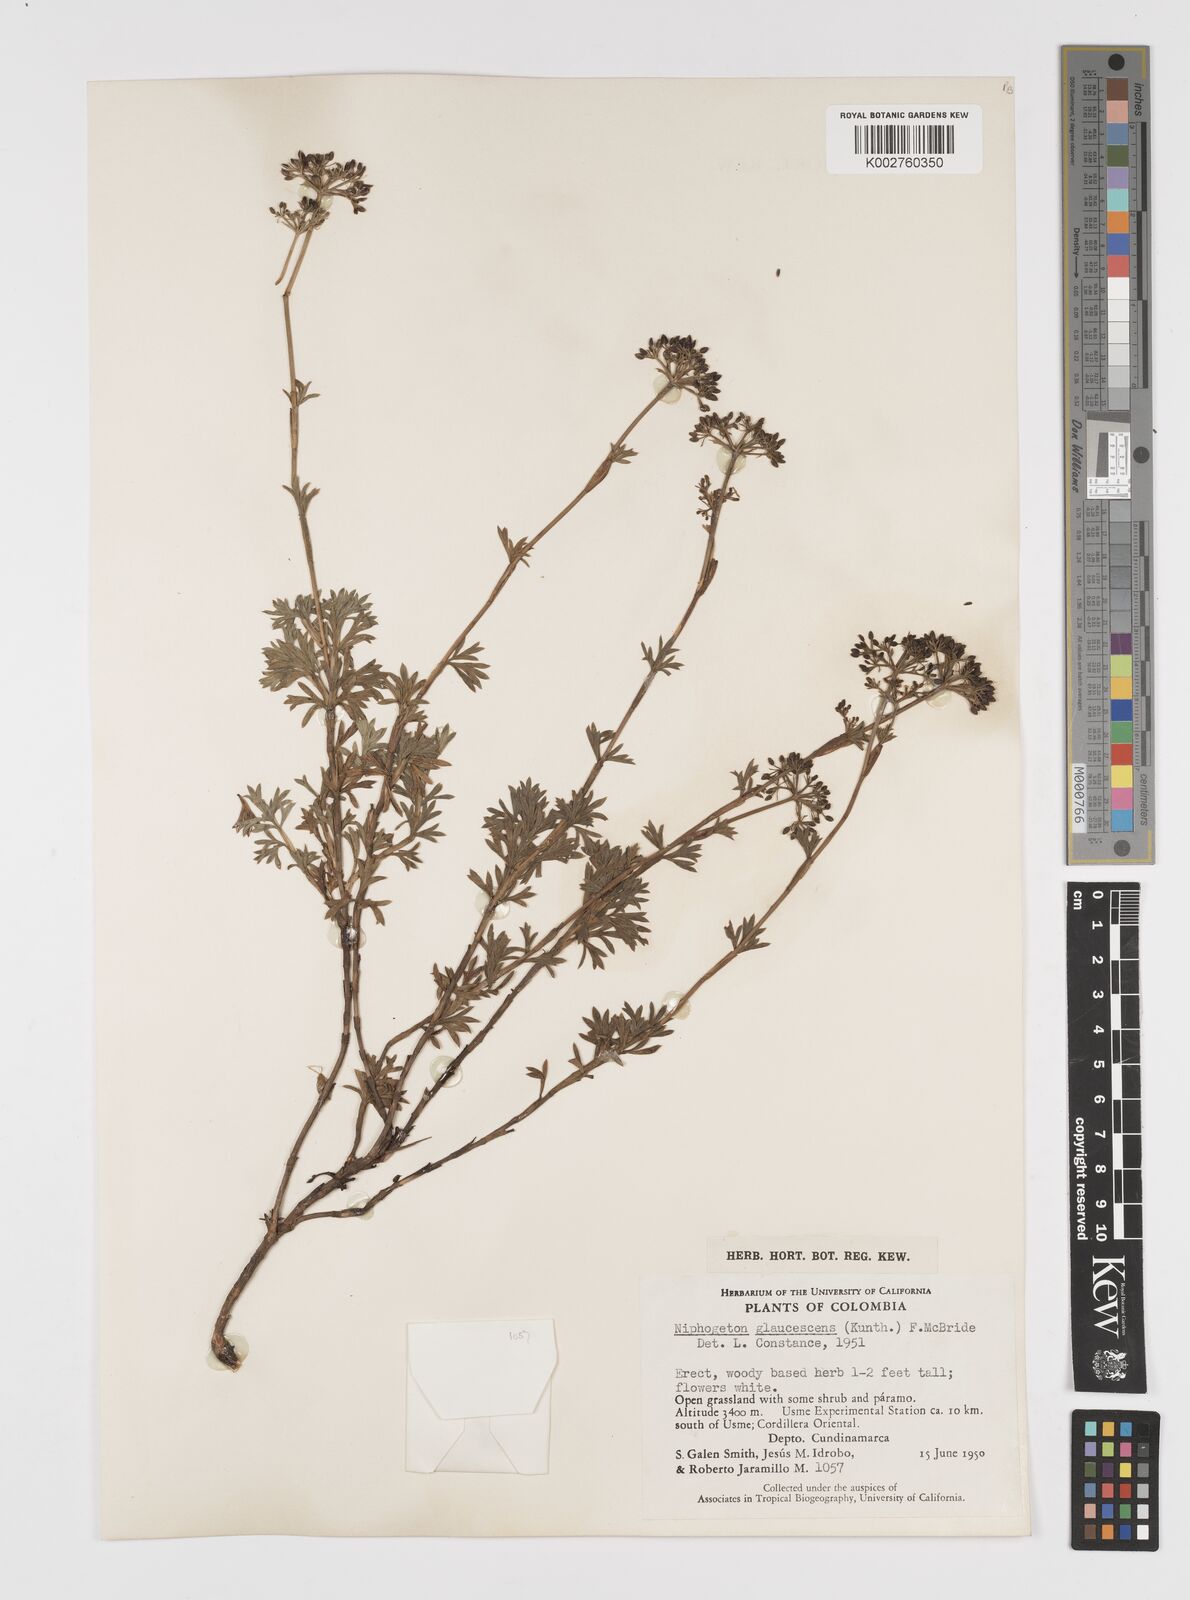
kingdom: Plantae
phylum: Tracheophyta
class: Magnoliopsida
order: Apiales
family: Apiaceae
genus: Niphogeton
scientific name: Niphogeton glaucescens
